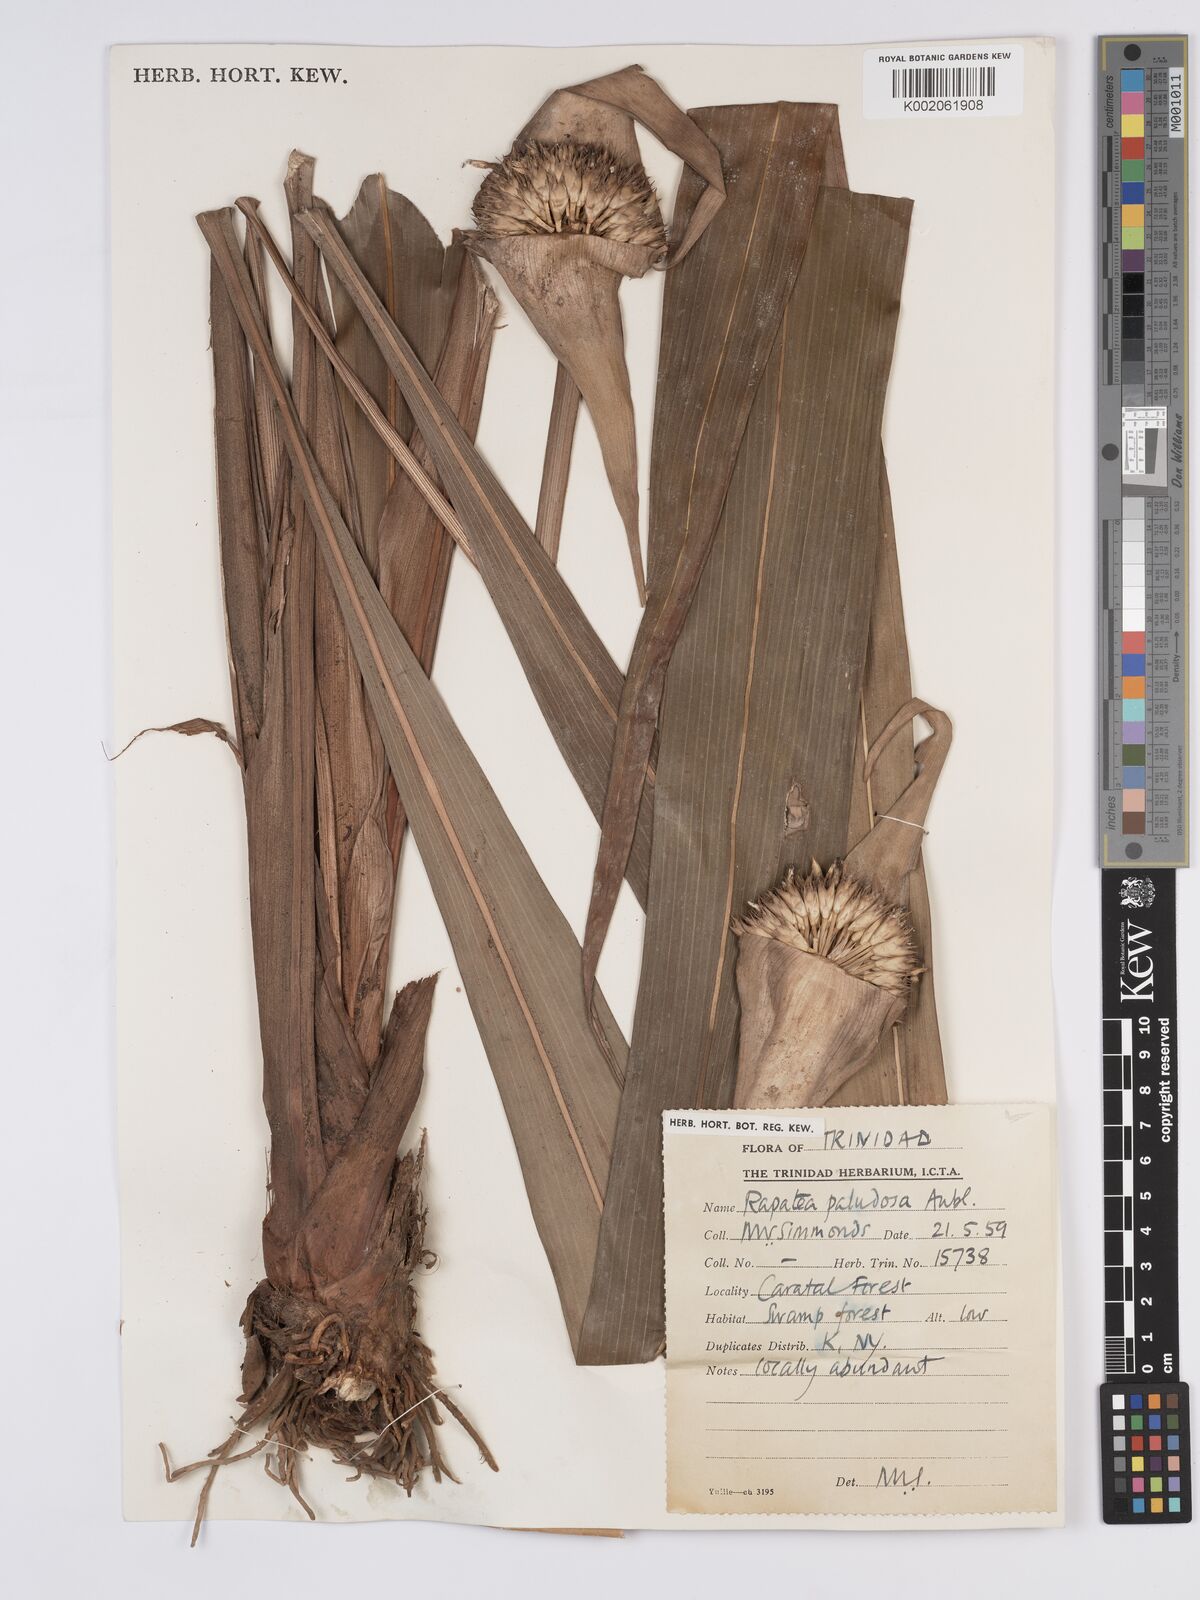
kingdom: Plantae
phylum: Tracheophyta
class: Liliopsida
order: Poales
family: Rapateaceae
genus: Rapatea
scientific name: Rapatea paludosa
